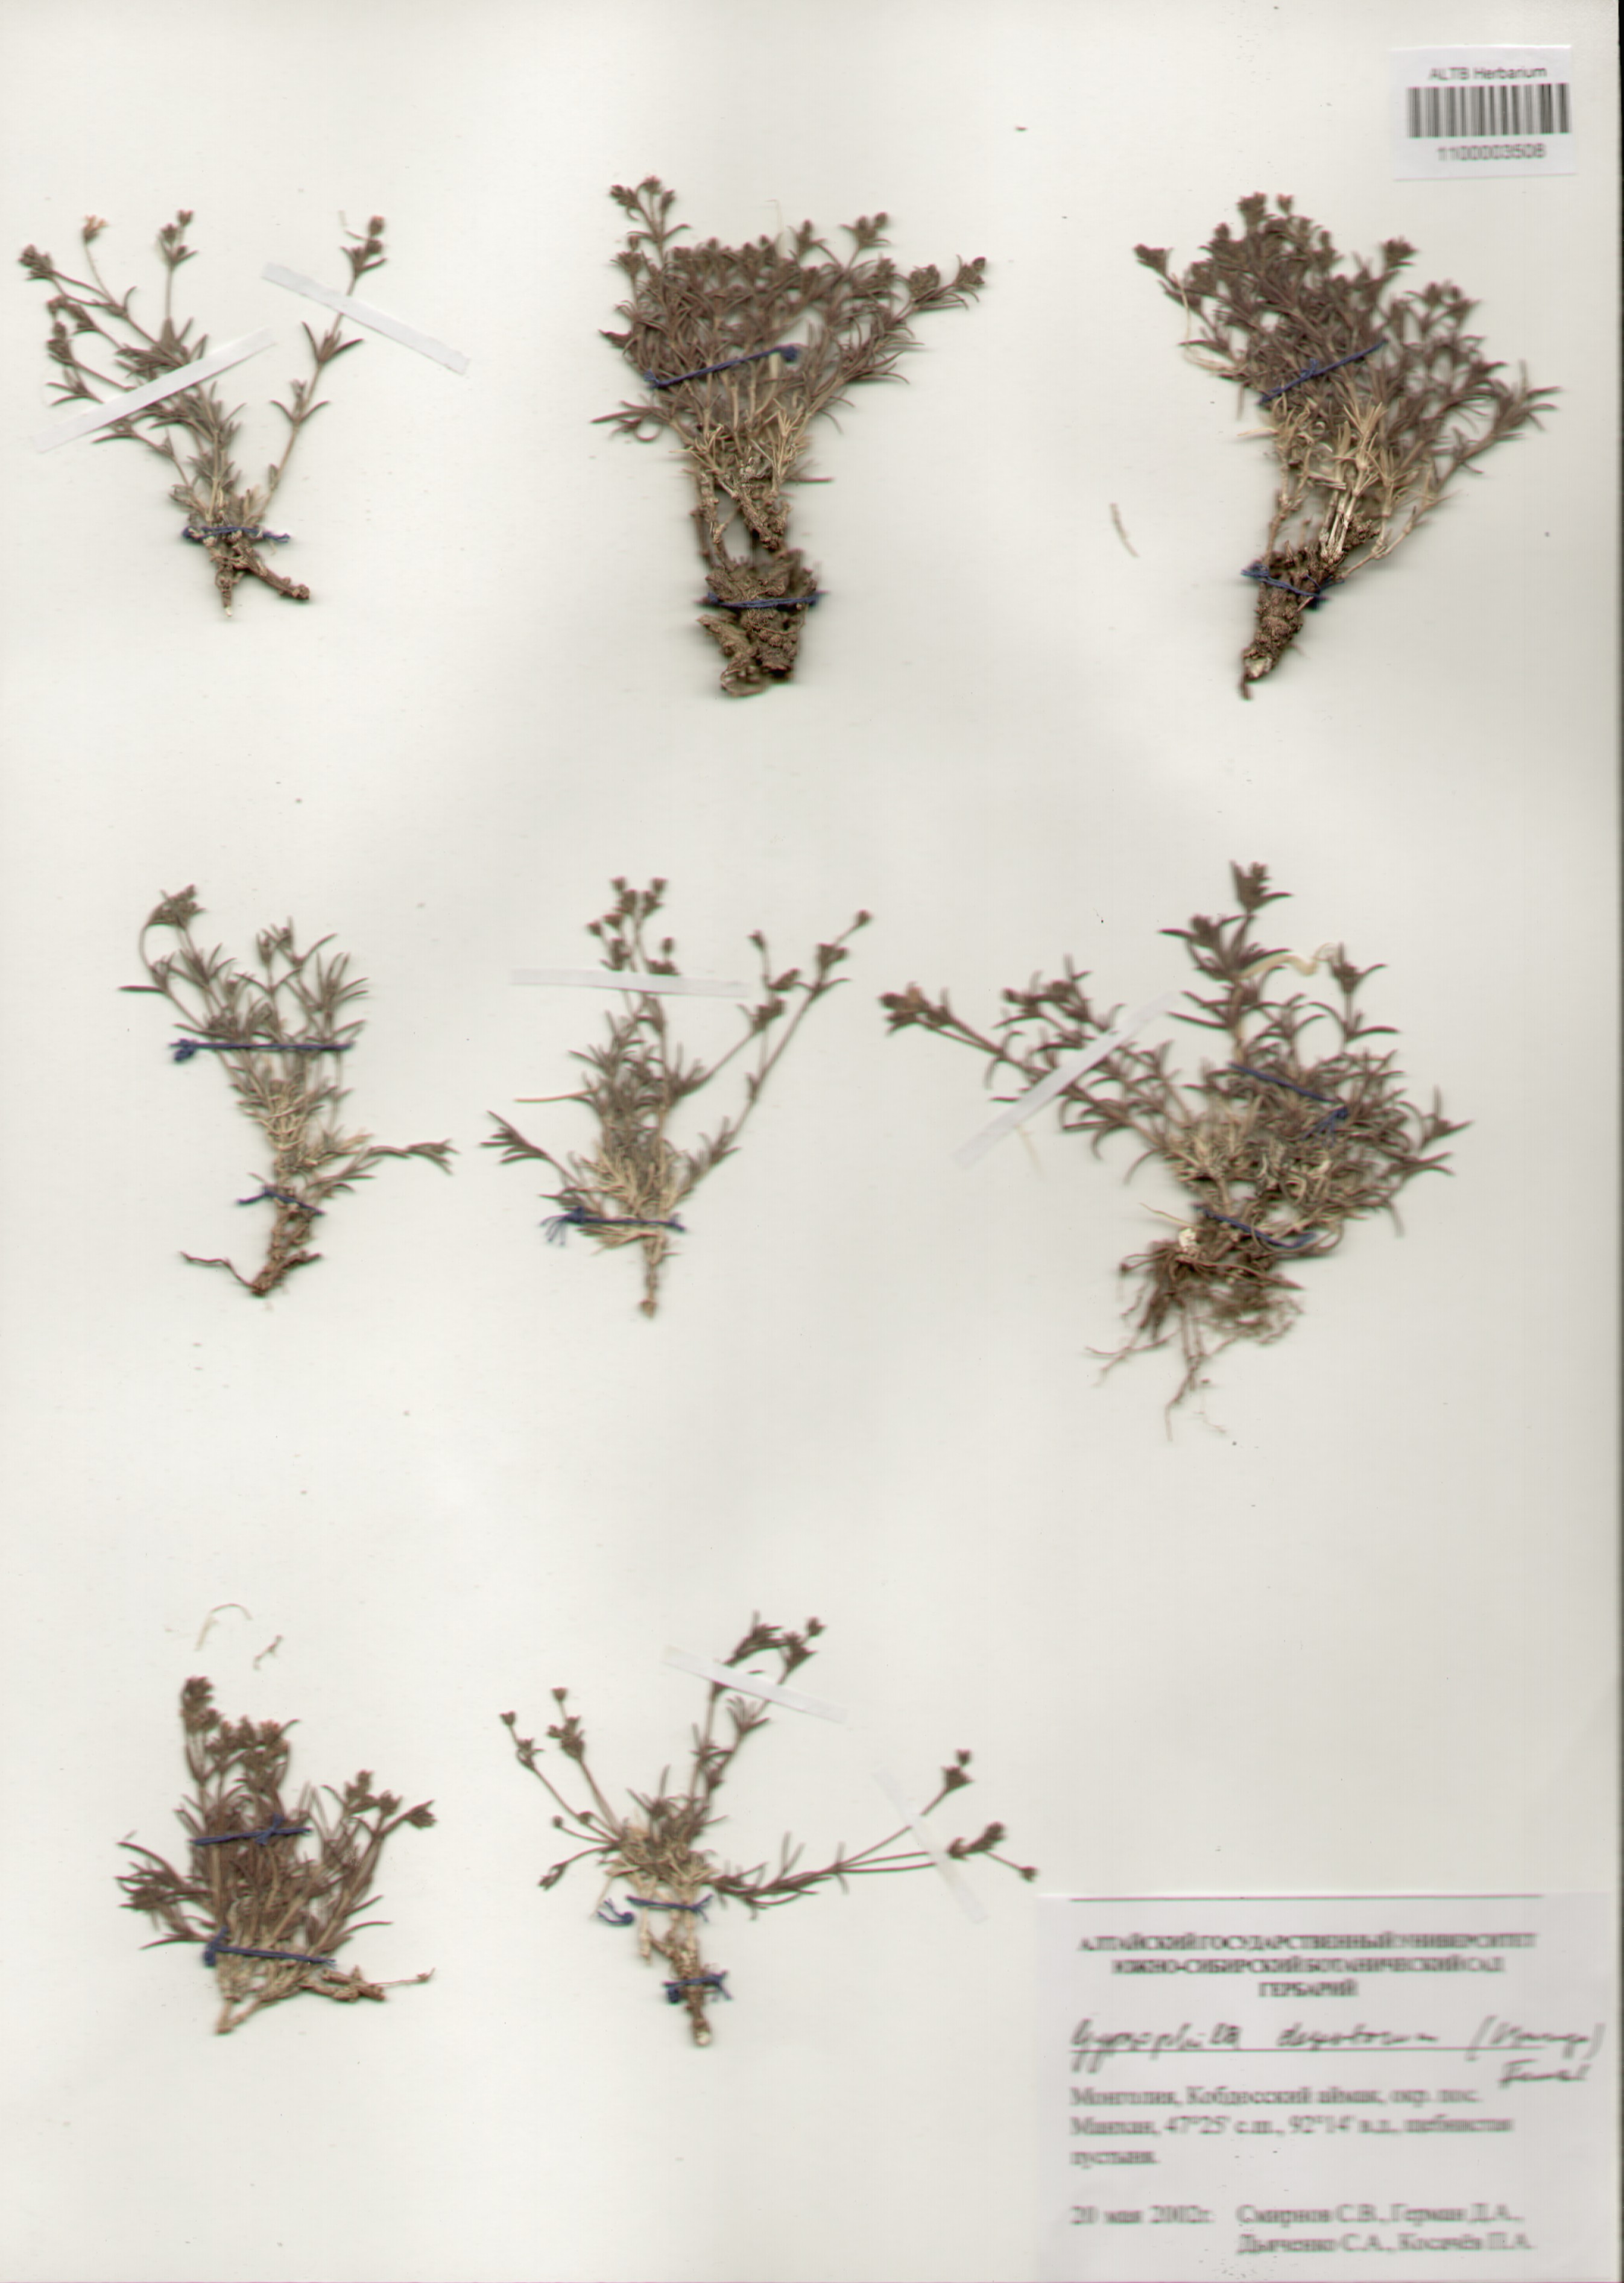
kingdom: Plantae
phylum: Tracheophyta
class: Magnoliopsida
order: Caryophyllales
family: Caryophyllaceae
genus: Heterochroa
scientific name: Heterochroa desertorum
